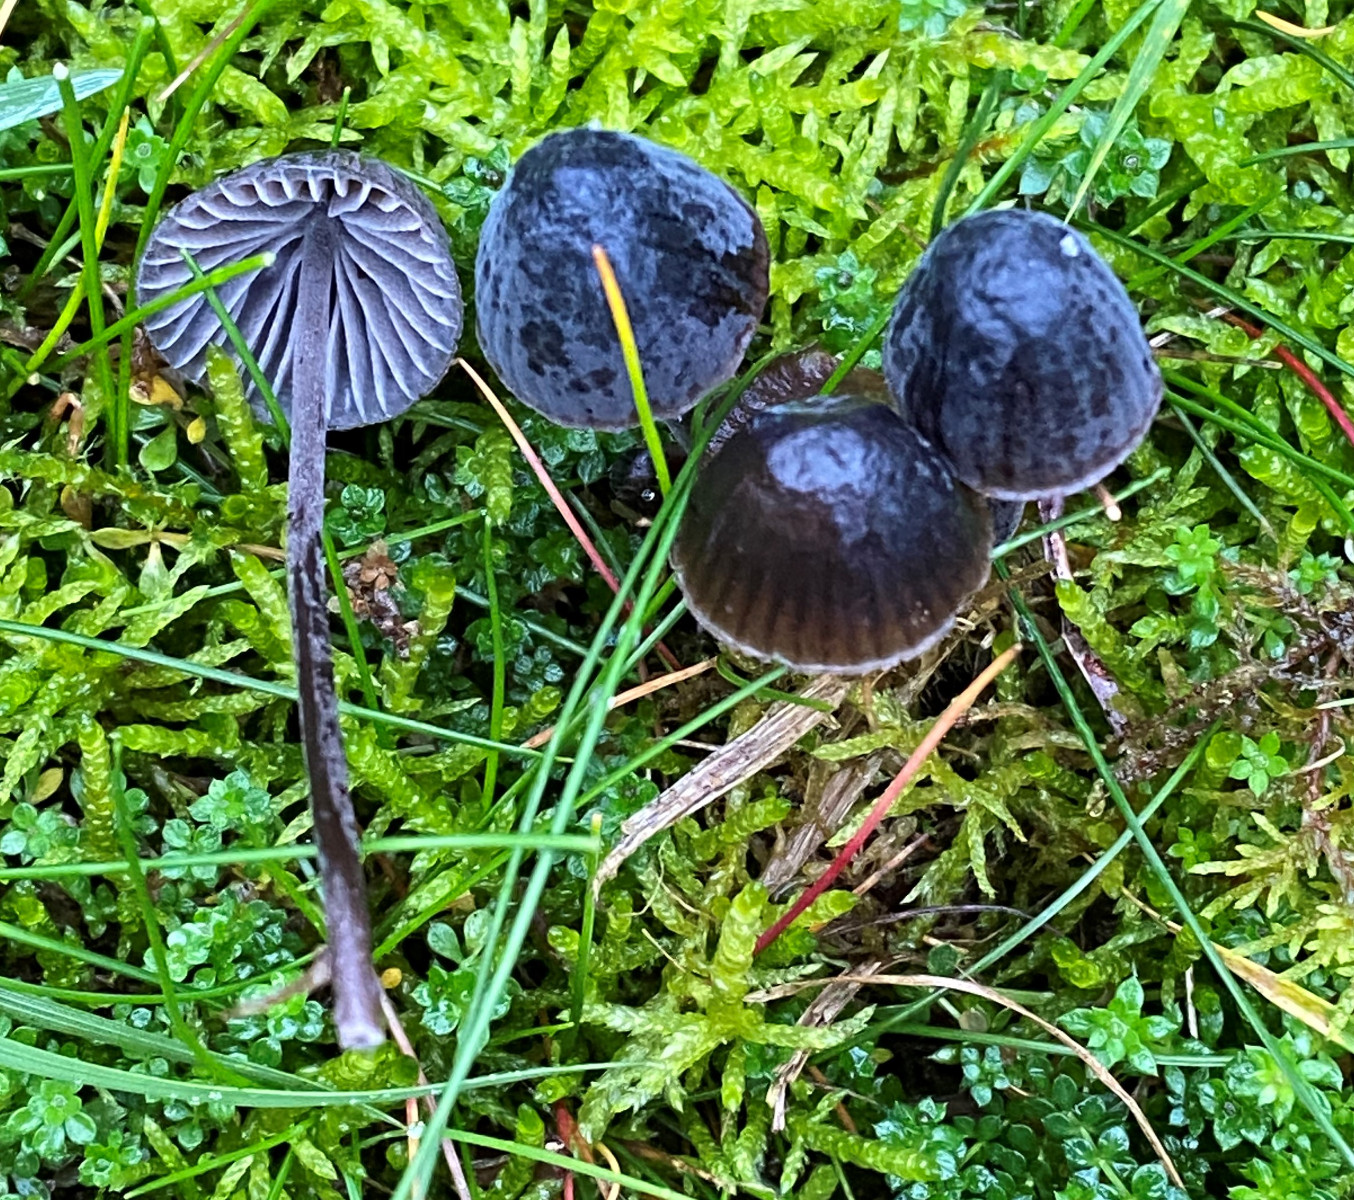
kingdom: Fungi
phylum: Basidiomycota
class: Agaricomycetes
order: Agaricales
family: Mycenaceae
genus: Mycena
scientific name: Mycena
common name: huesvamp
